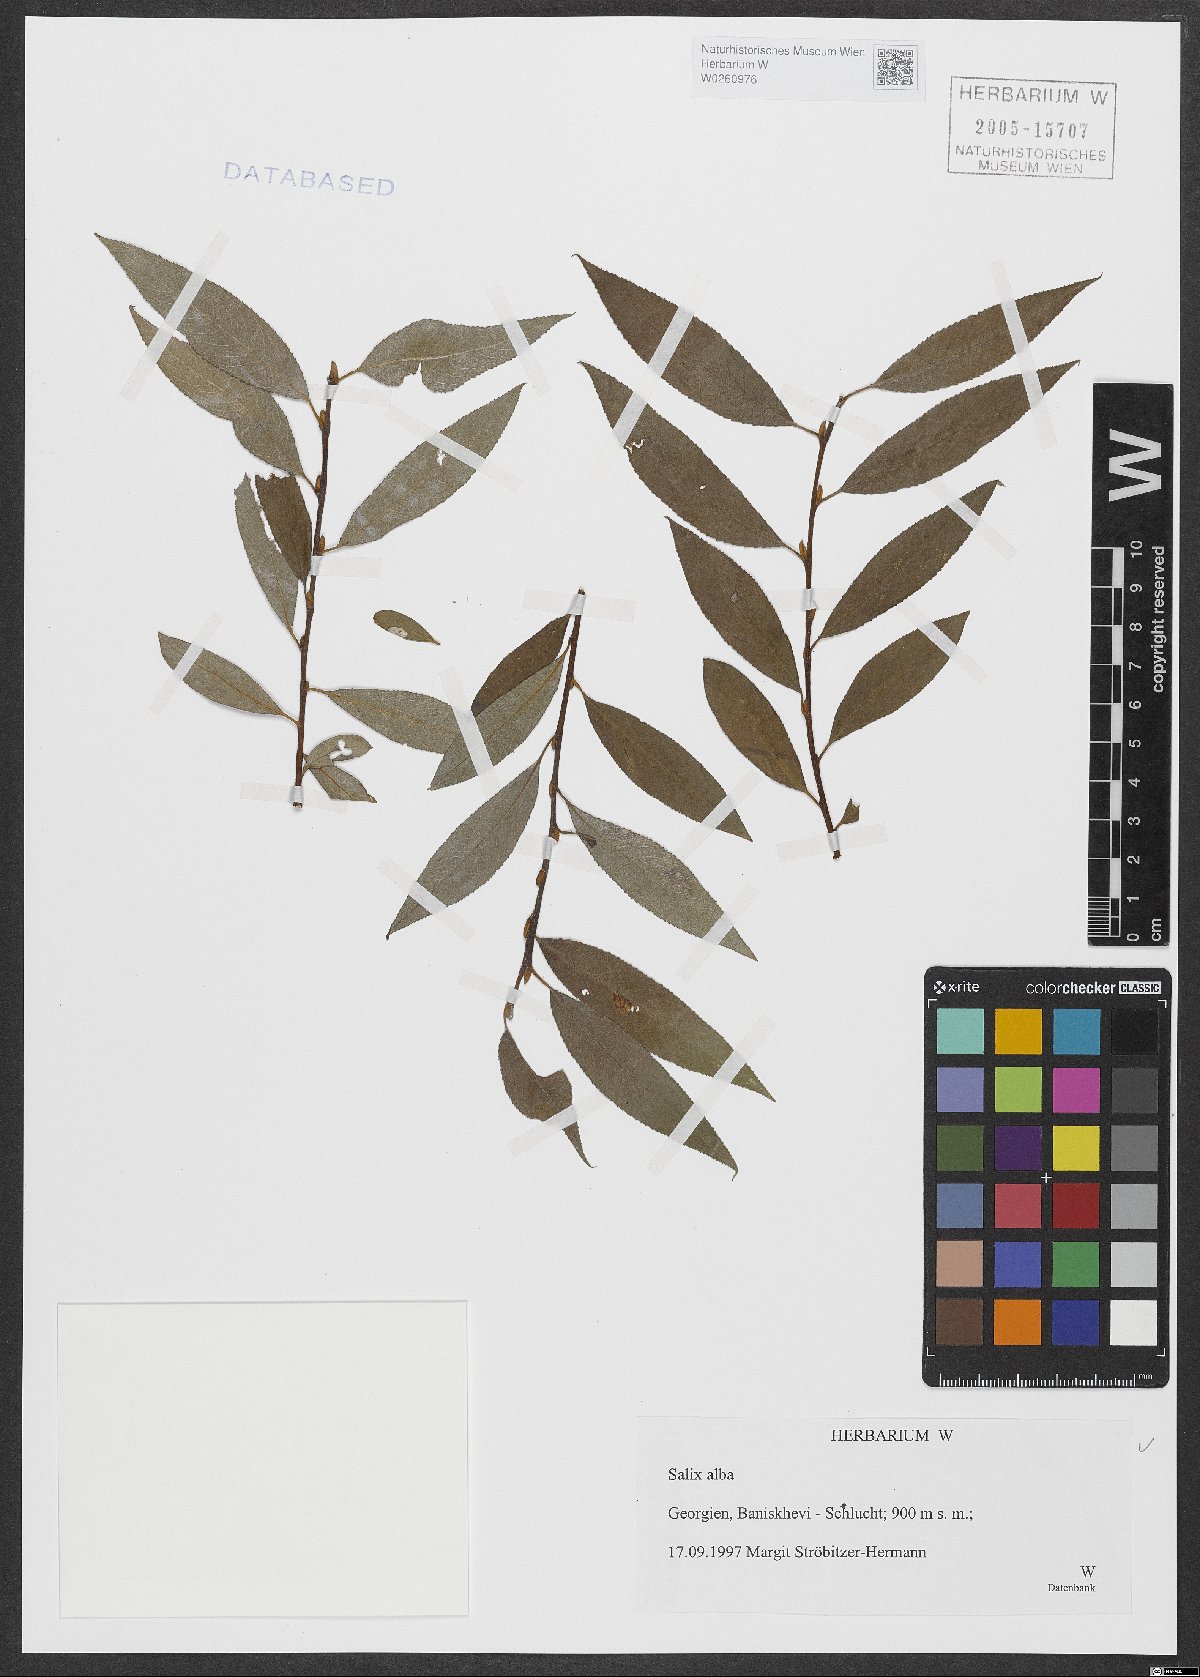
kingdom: Plantae
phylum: Tracheophyta
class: Magnoliopsida
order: Malpighiales
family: Salicaceae
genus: Salix
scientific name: Salix alba
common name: White willow
